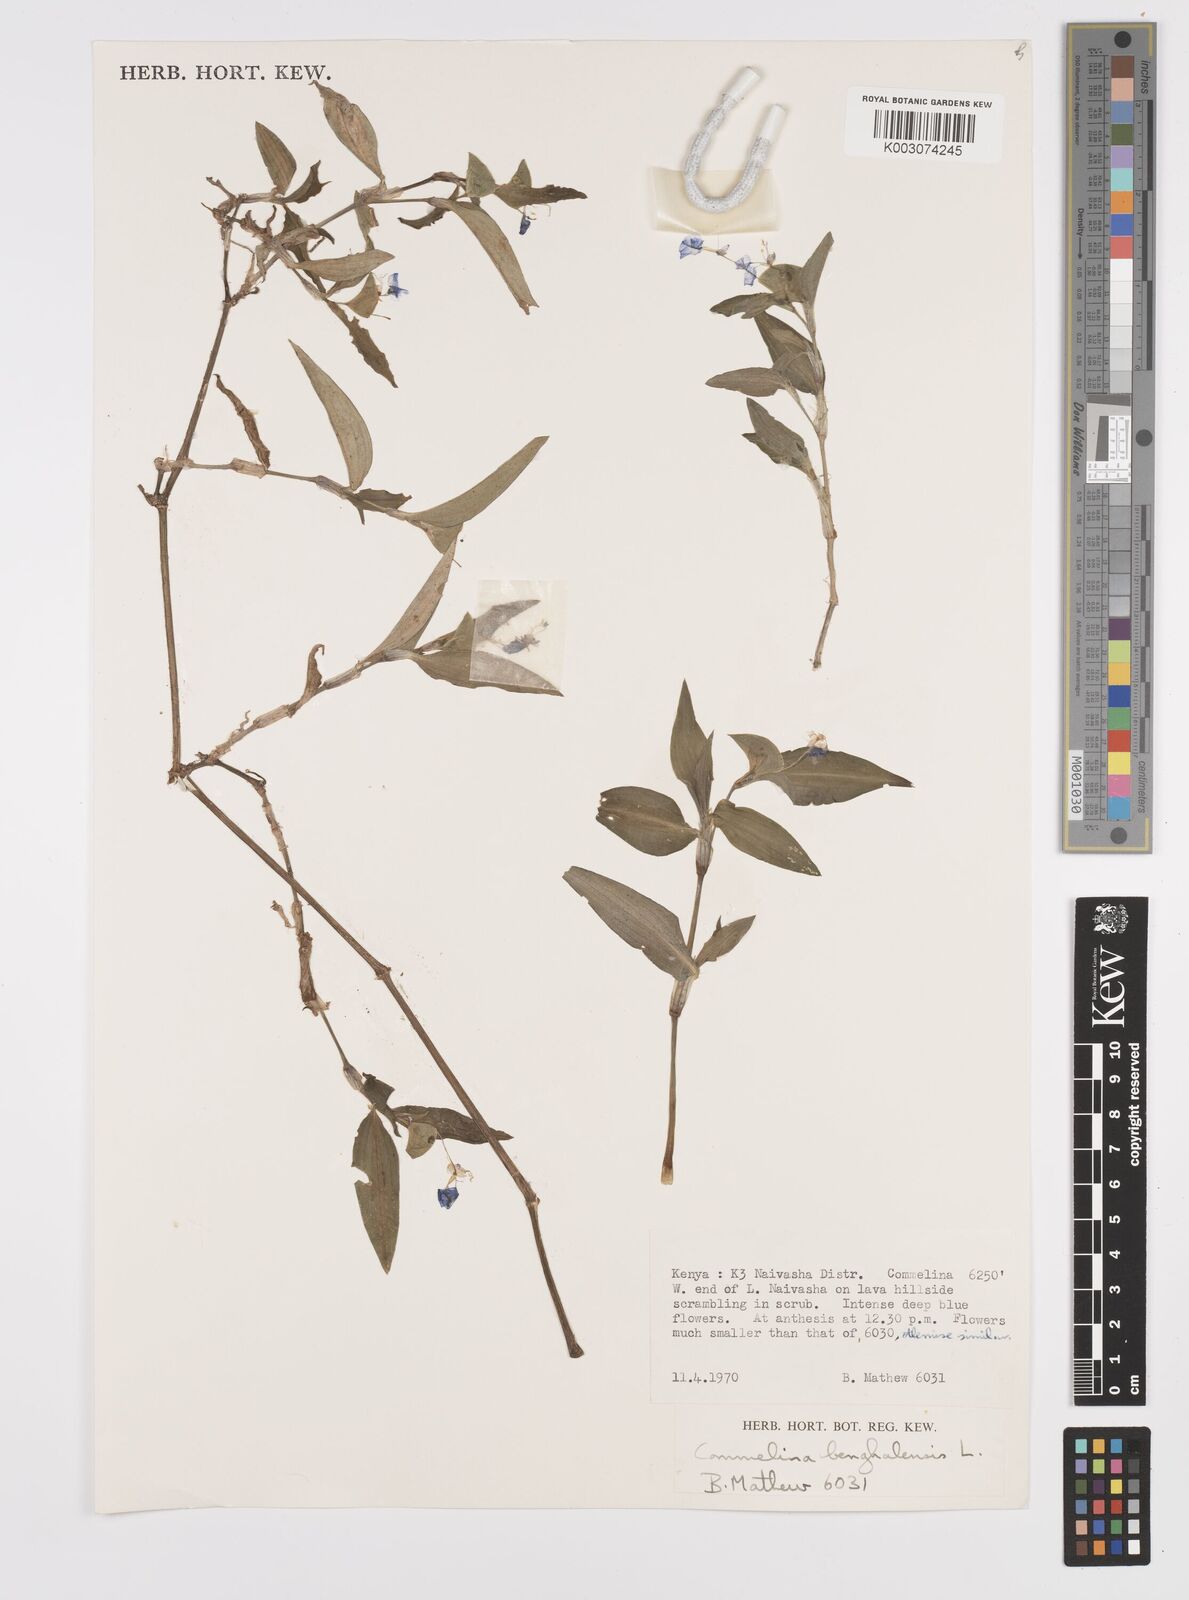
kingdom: Plantae
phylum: Tracheophyta
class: Liliopsida
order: Commelinales
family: Commelinaceae
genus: Commelina
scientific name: Commelina benghalensis
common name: Jio
